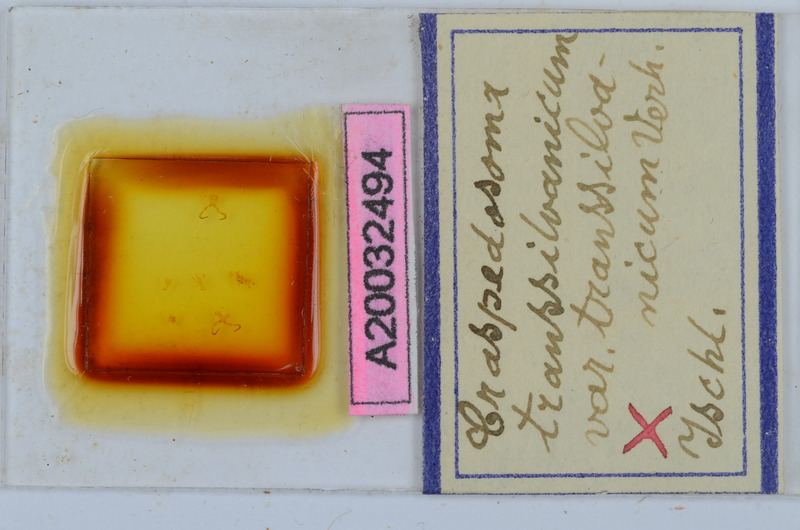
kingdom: Animalia
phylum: Arthropoda
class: Diplopoda
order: Chordeumatida
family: Craspedosomatidae
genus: Craspedosoma
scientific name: Craspedosoma rawlinsii
